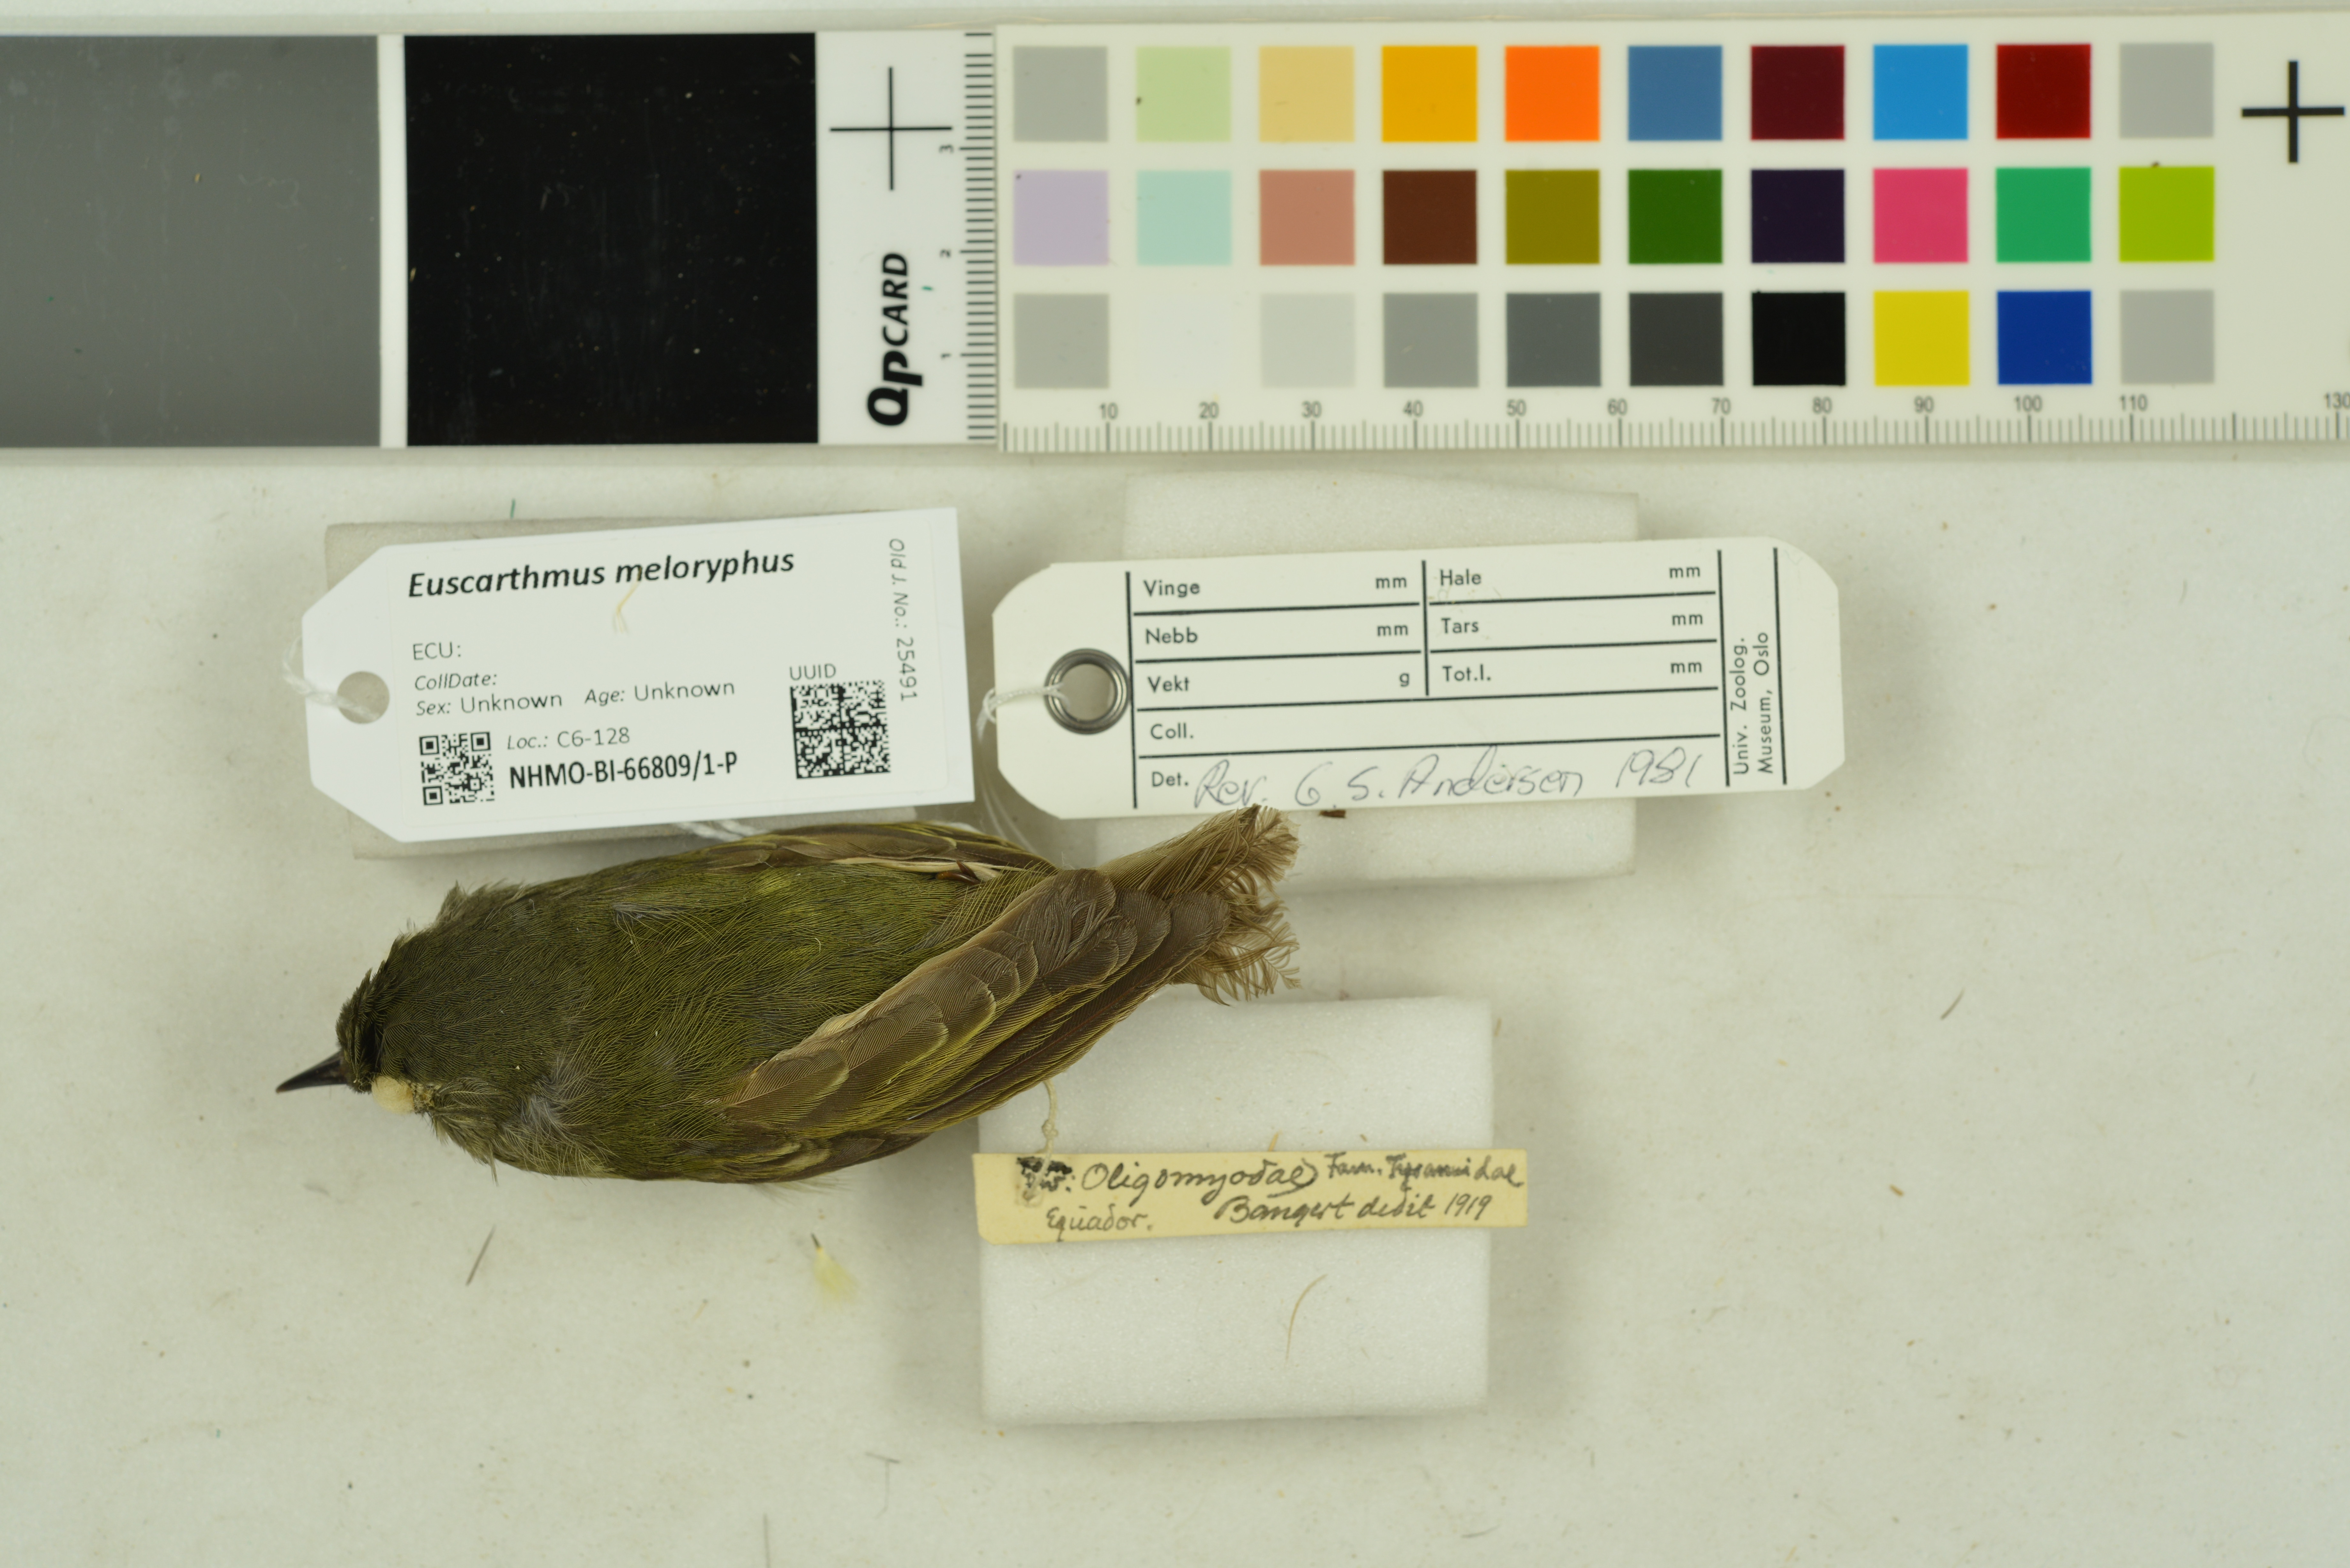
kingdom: Animalia
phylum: Chordata
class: Aves
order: Passeriformes
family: Tyrannidae
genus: Euscarthmus
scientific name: Euscarthmus meloryphus
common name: Tawny-crowned pygmy tyrant
